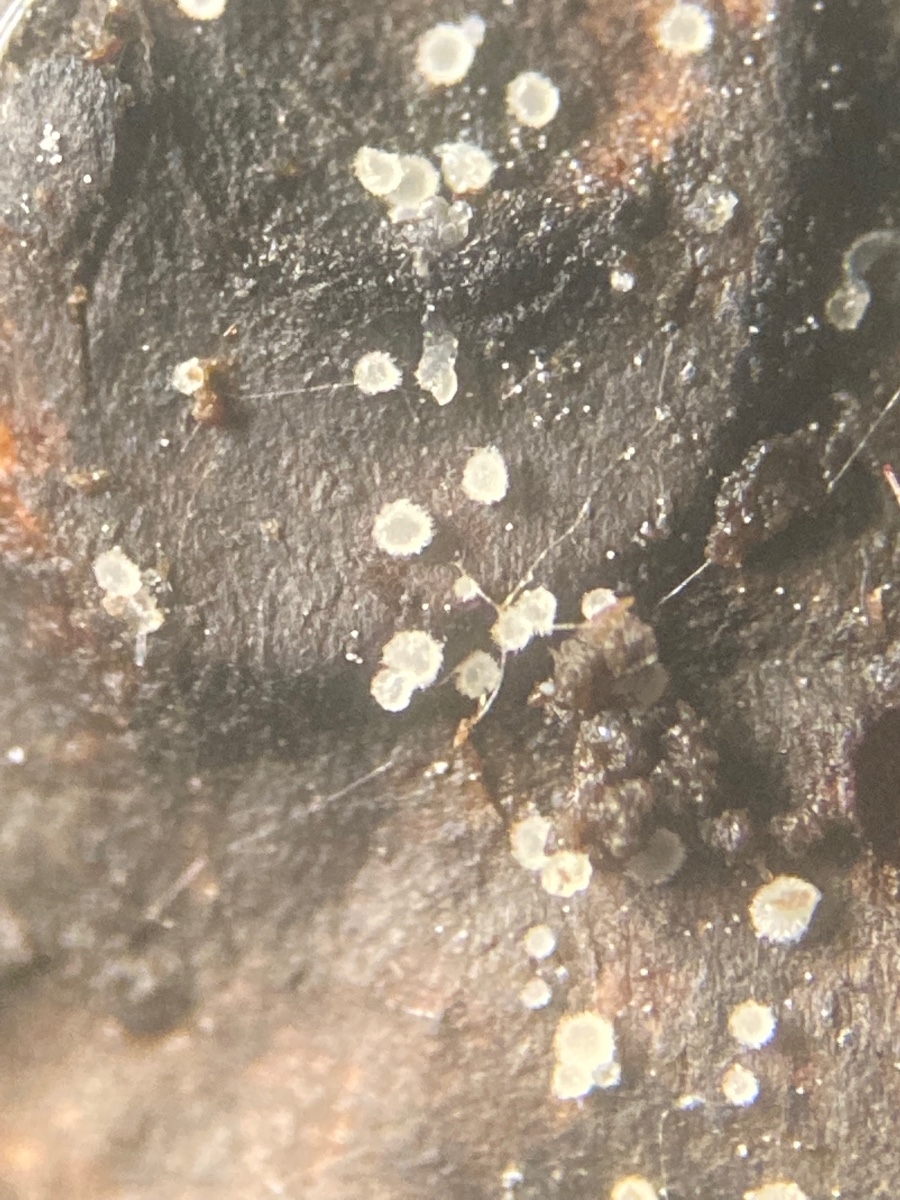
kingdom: Fungi
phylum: Ascomycota
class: Leotiomycetes
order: Helotiales
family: Hyaloscyphaceae
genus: Hyaloscypha
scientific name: Hyaloscypha
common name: klarskive
